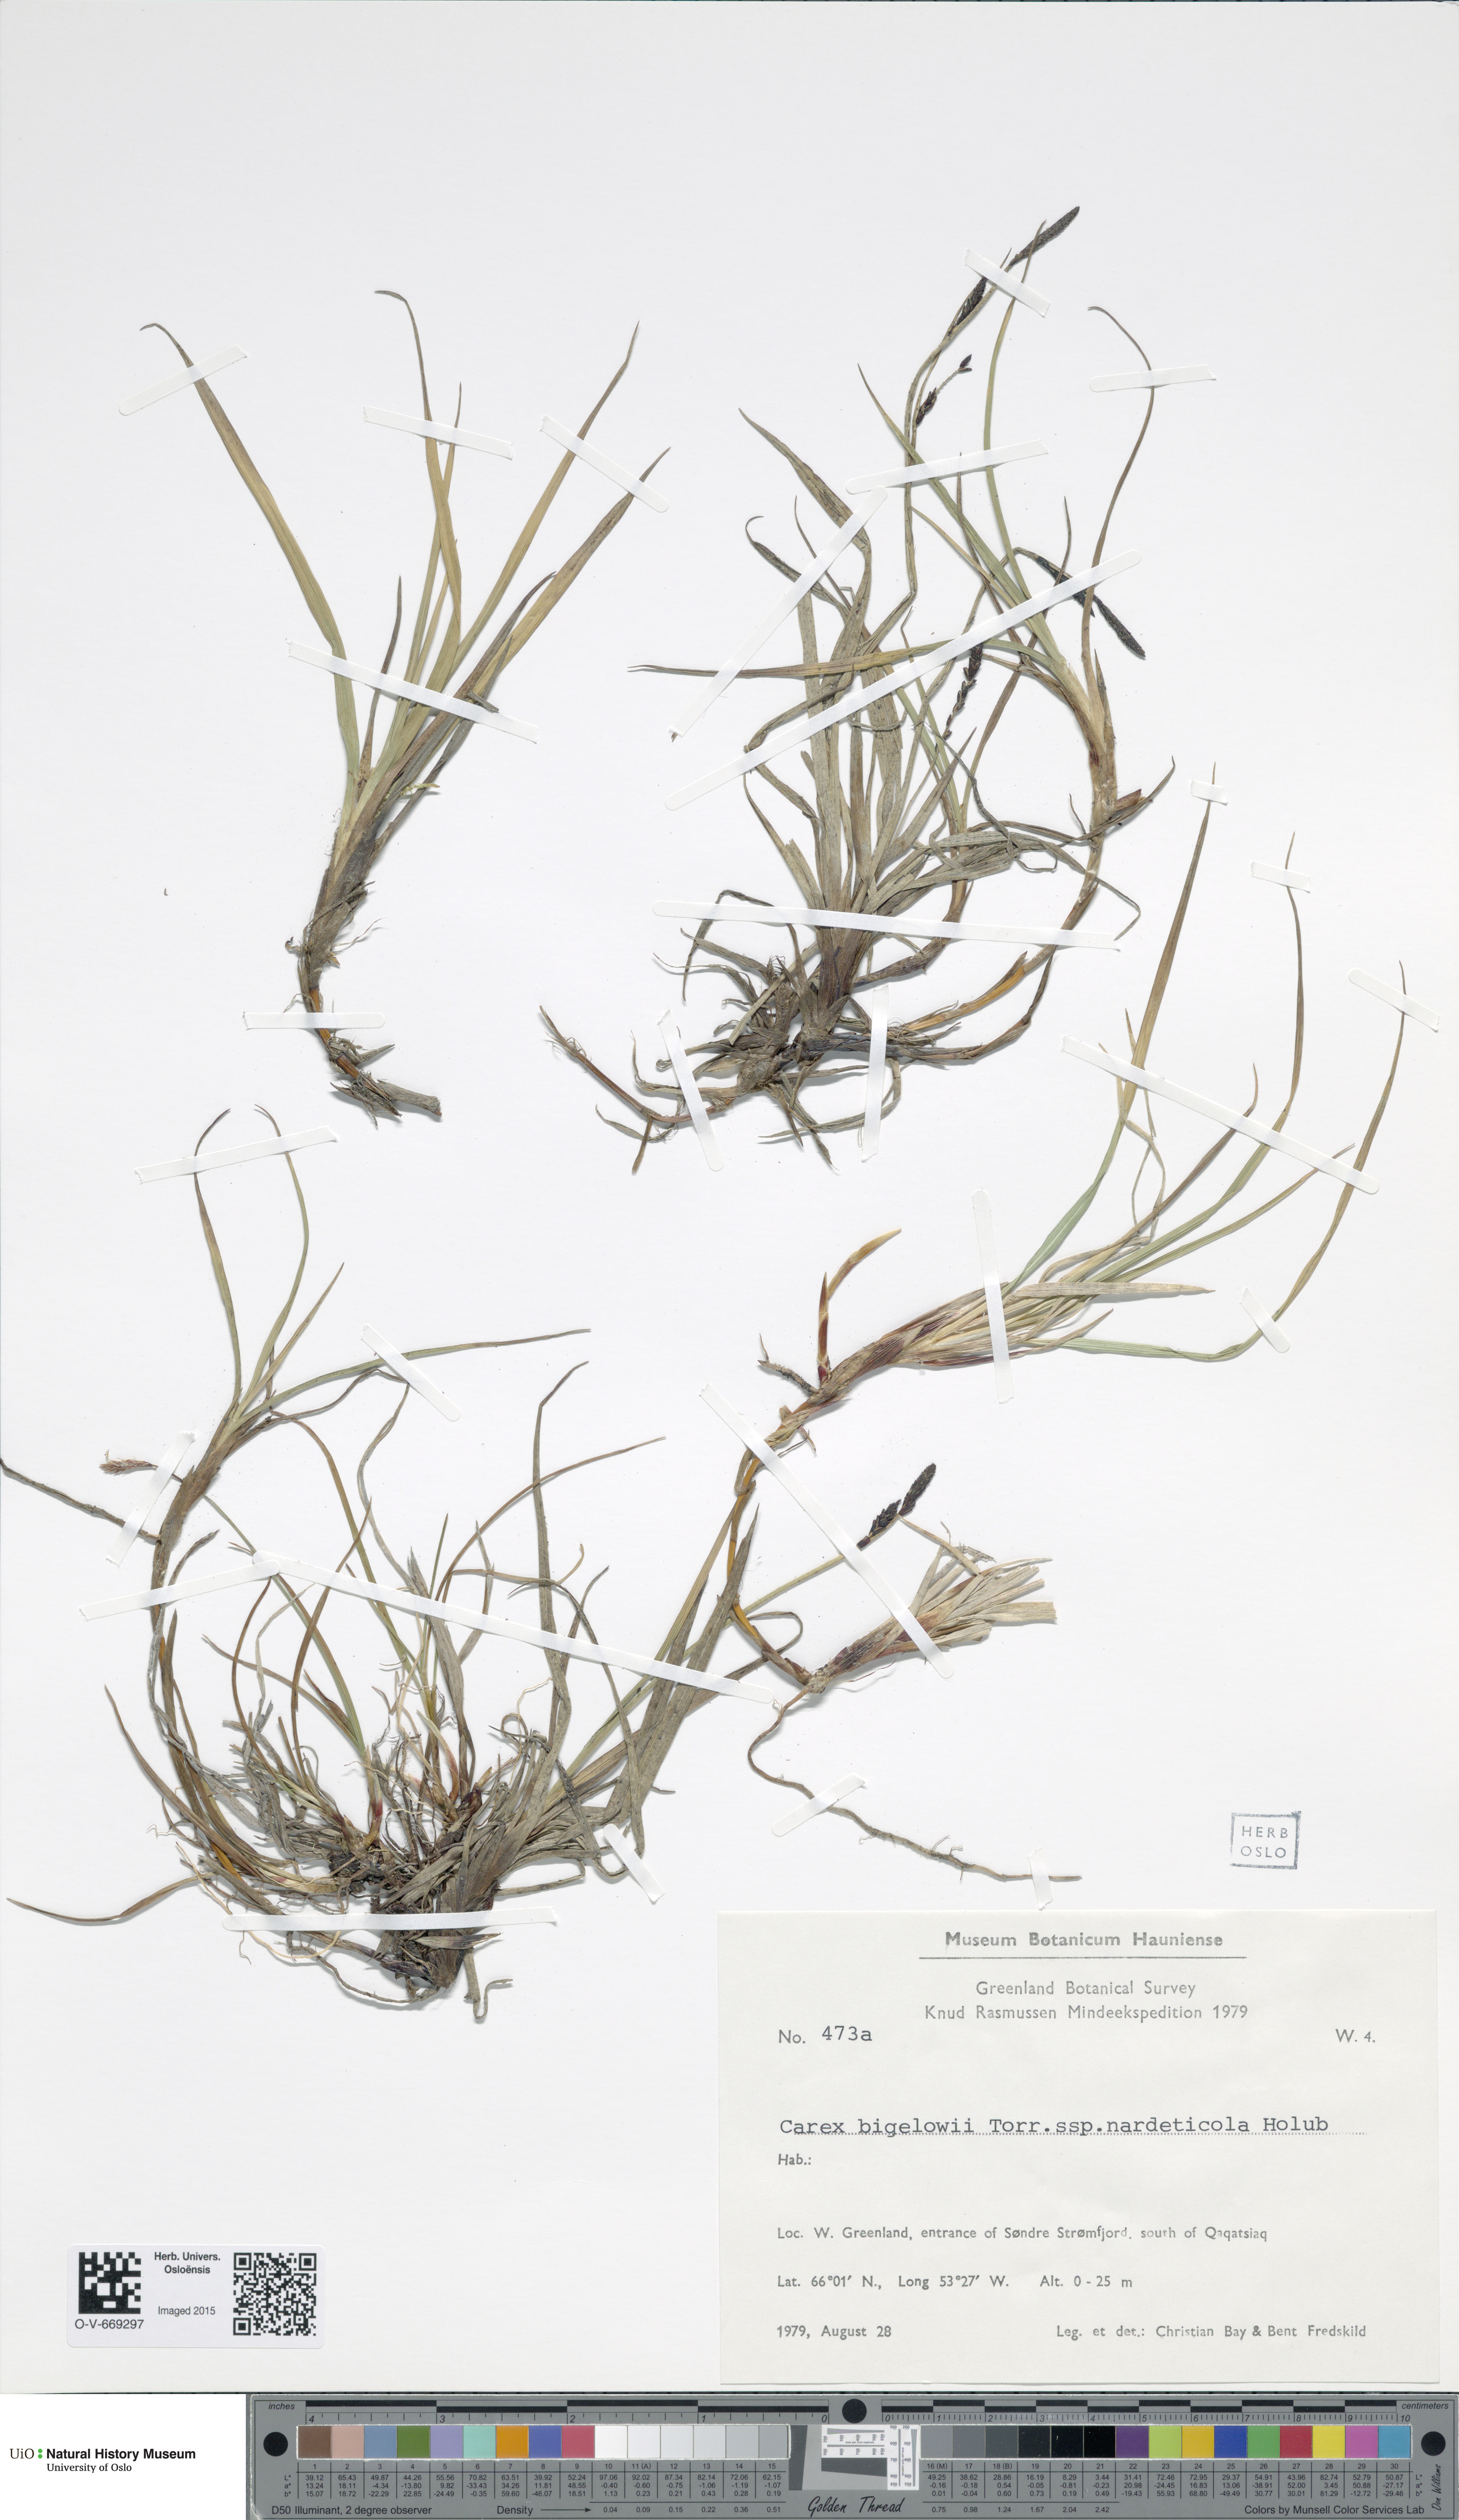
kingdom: Plantae
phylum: Tracheophyta
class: Liliopsida
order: Poales
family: Cyperaceae
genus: Carex
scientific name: Carex bigelowii
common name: Stiff sedge
